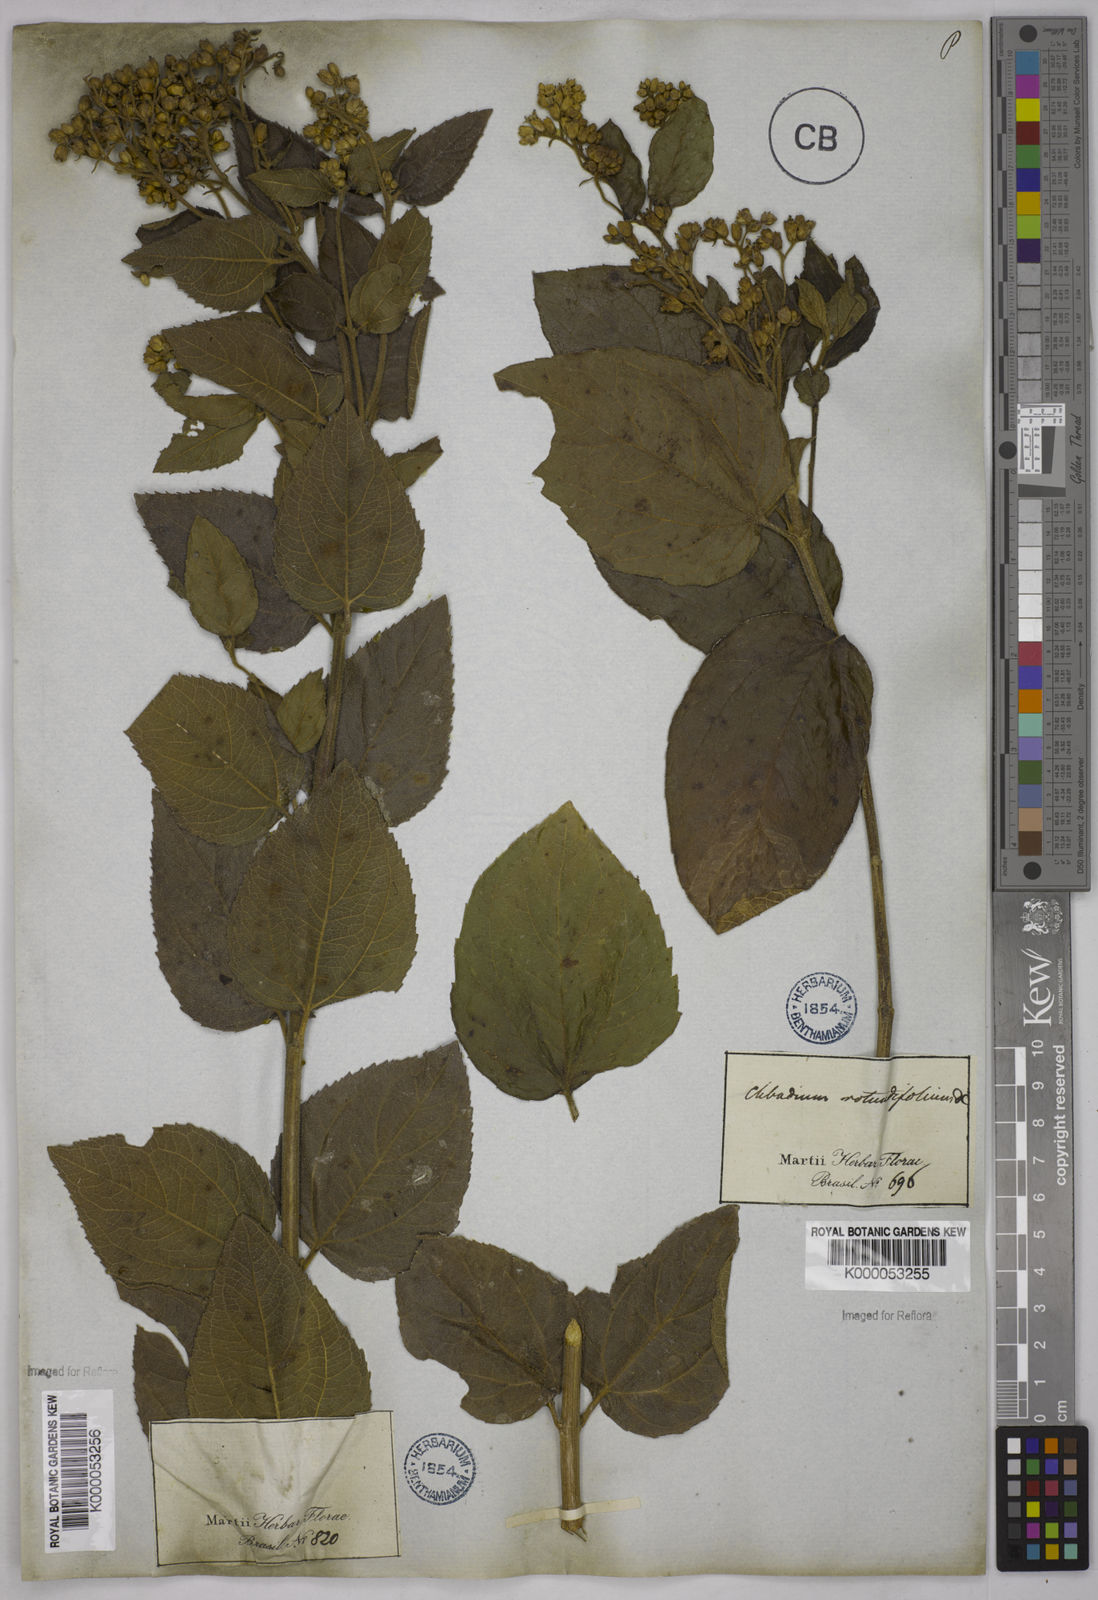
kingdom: Plantae
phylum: Tracheophyta
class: Magnoliopsida
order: Asterales
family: Asteraceae
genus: Clibadium
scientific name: Clibadium armanii
